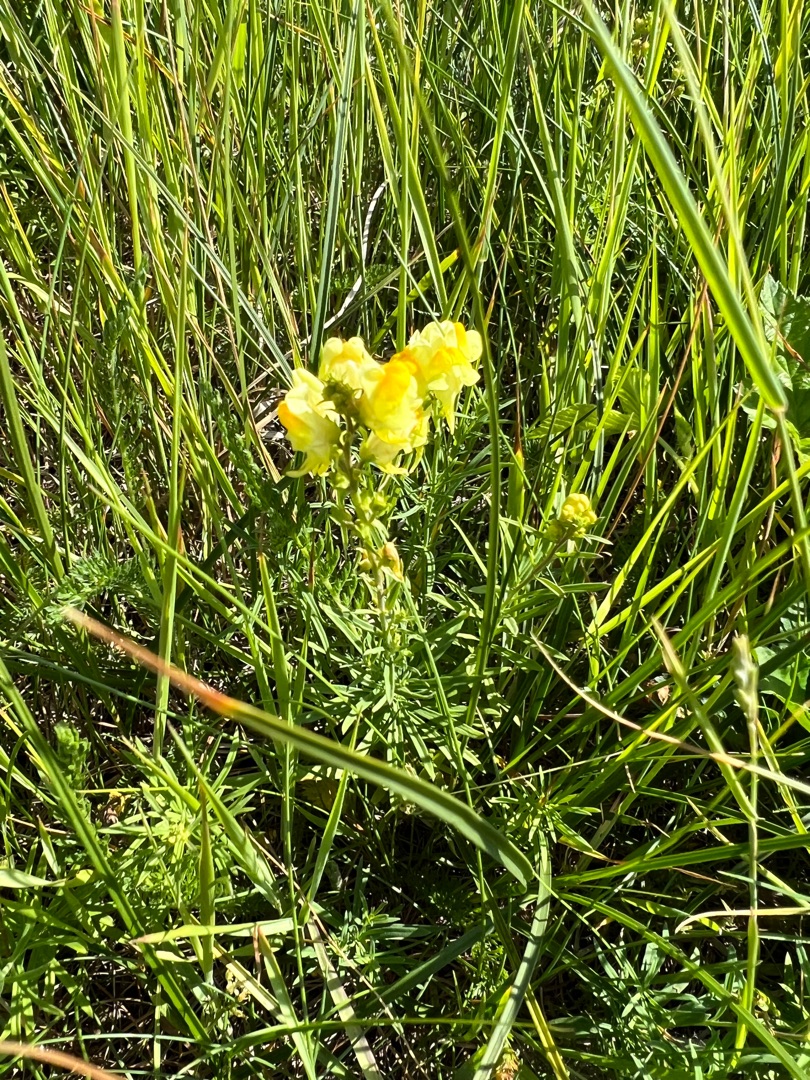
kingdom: Plantae
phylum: Tracheophyta
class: Magnoliopsida
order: Lamiales
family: Plantaginaceae
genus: Linaria
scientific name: Linaria vulgaris
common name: Almindelig torskemund
